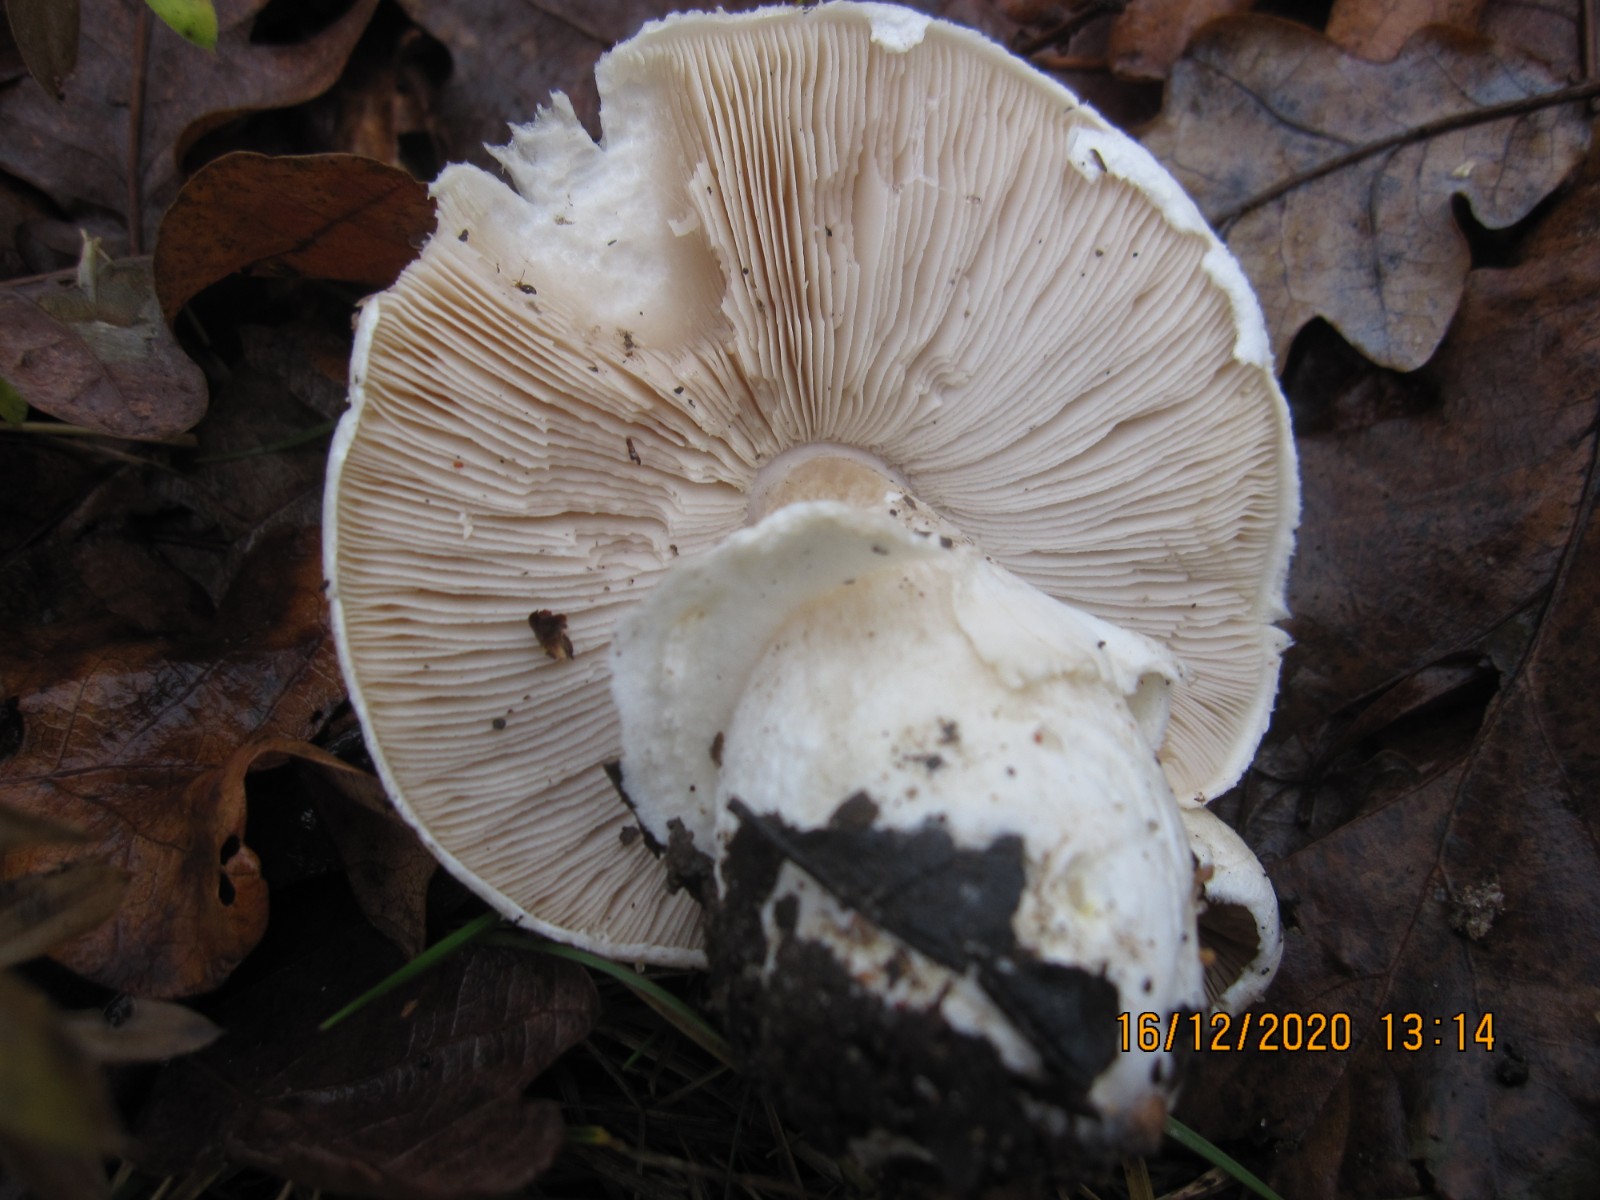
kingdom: Fungi
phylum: Basidiomycota
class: Agaricomycetes
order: Agaricales
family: Agaricaceae
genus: Agaricus
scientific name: Agaricus arvensis
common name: ager-champignon
